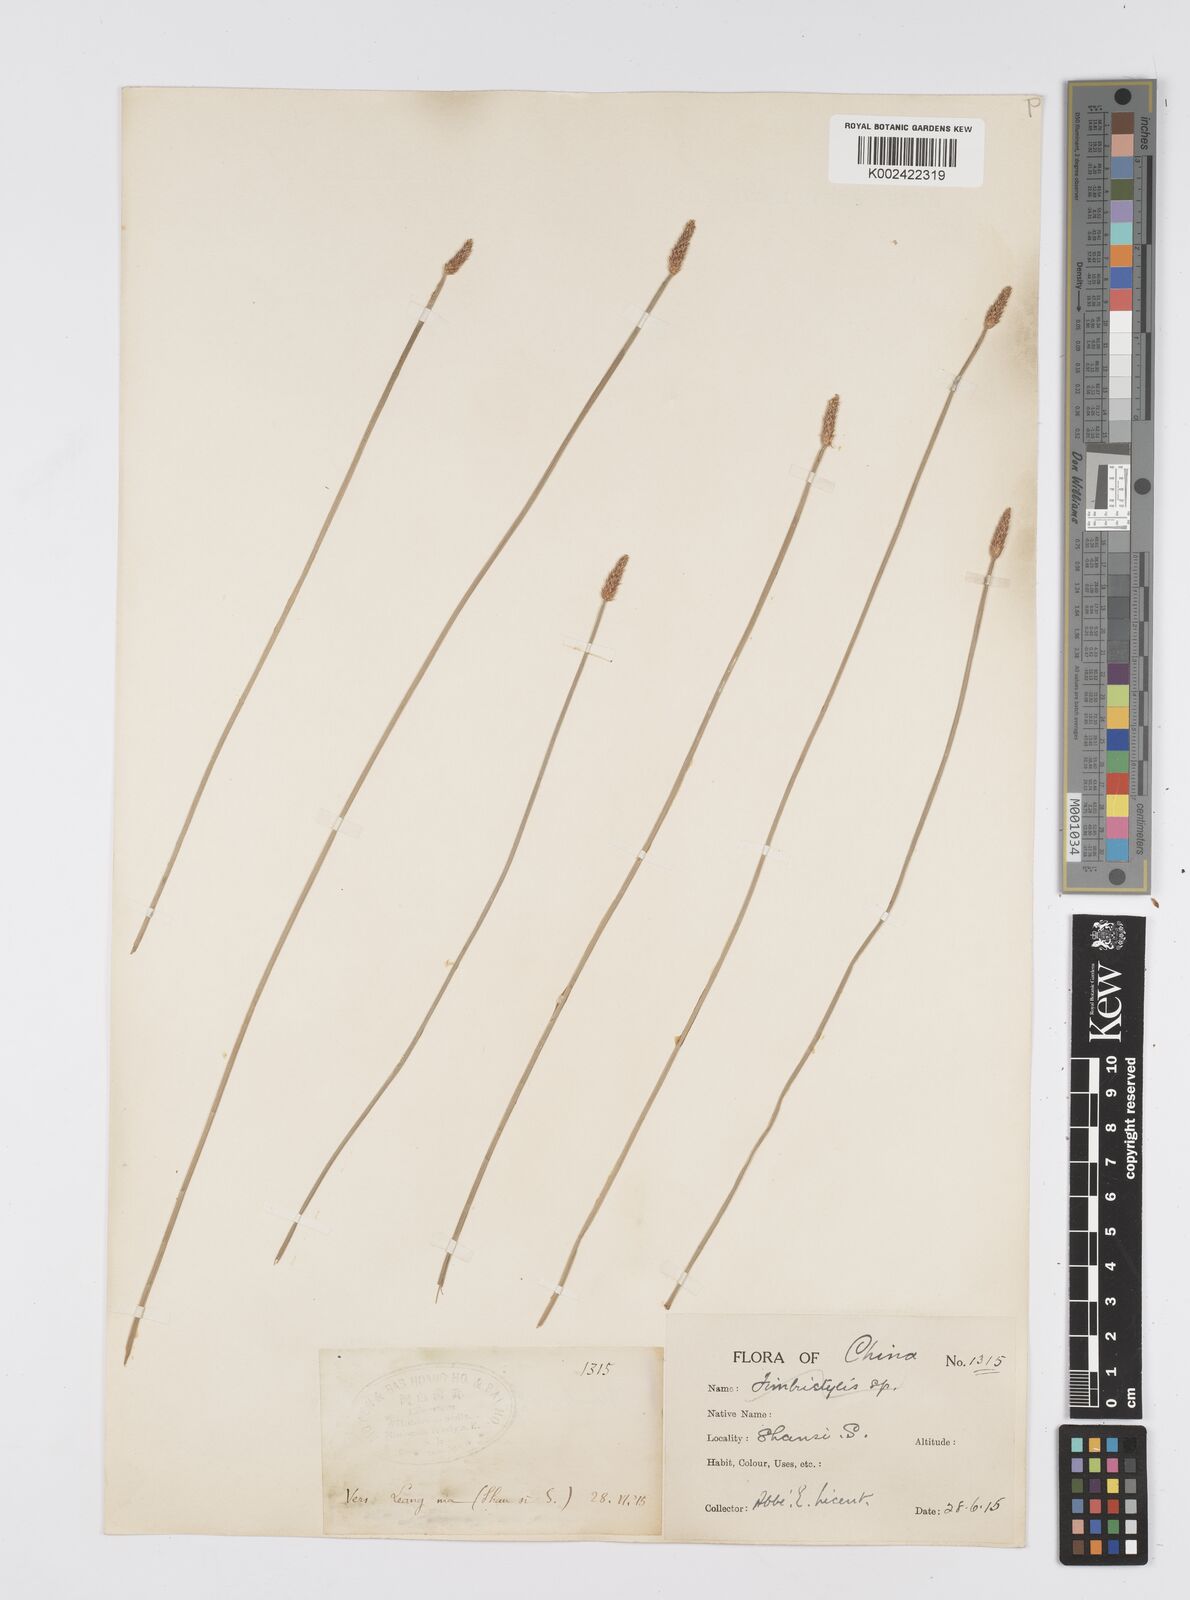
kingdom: Plantae
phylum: Tracheophyta
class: Liliopsida
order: Poales
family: Cyperaceae
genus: Eleocharis
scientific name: Eleocharis
